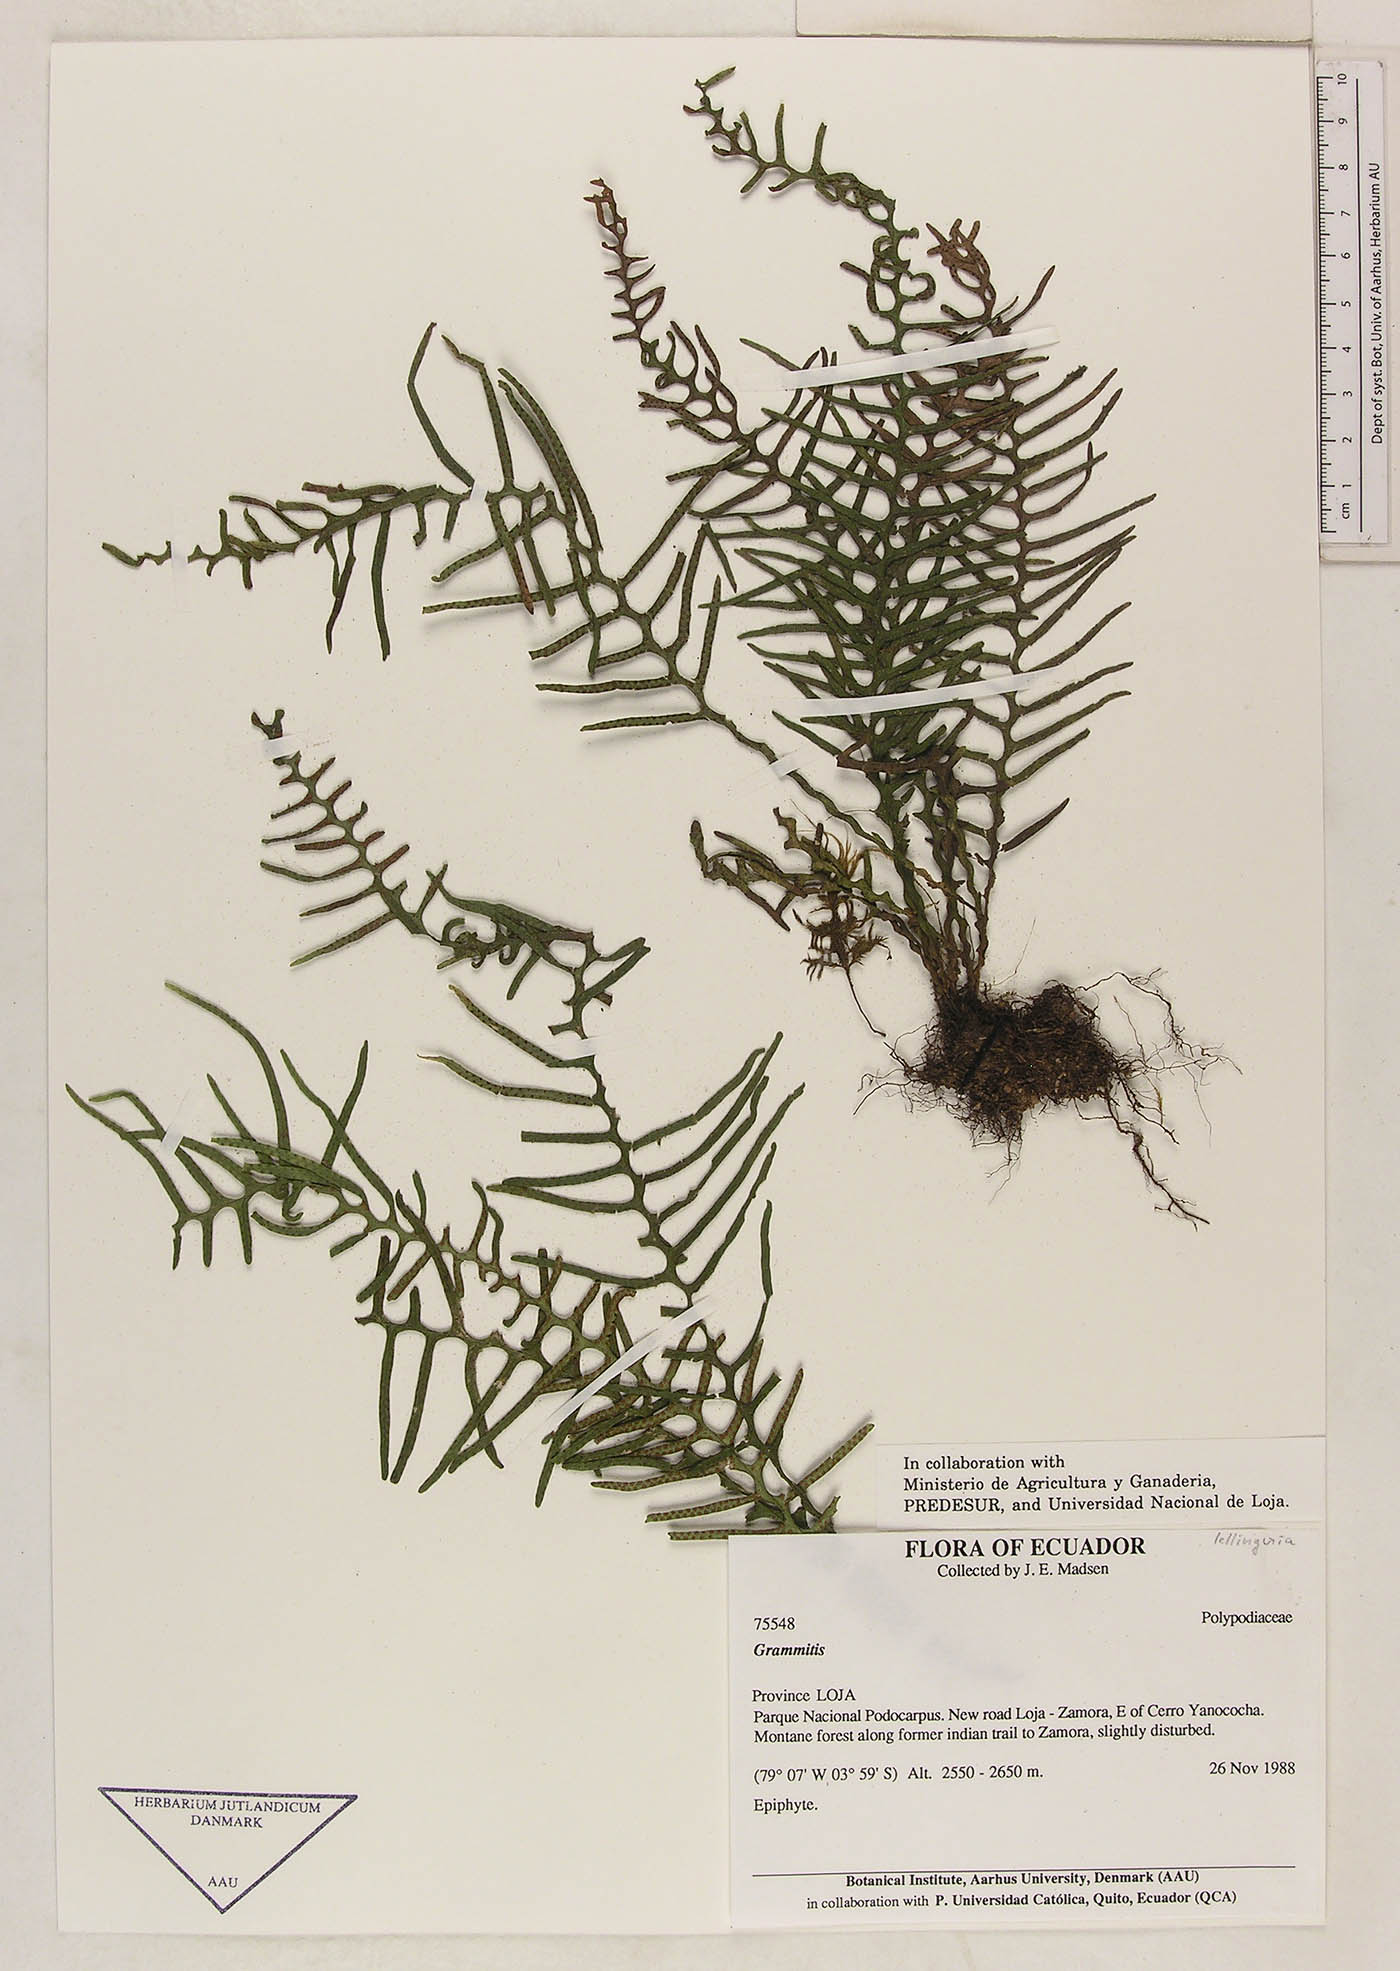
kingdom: Plantae
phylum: Tracheophyta
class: Polypodiopsida
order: Polypodiales
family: Polypodiaceae
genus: Lellingeria
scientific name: Lellingeria subsessilis
